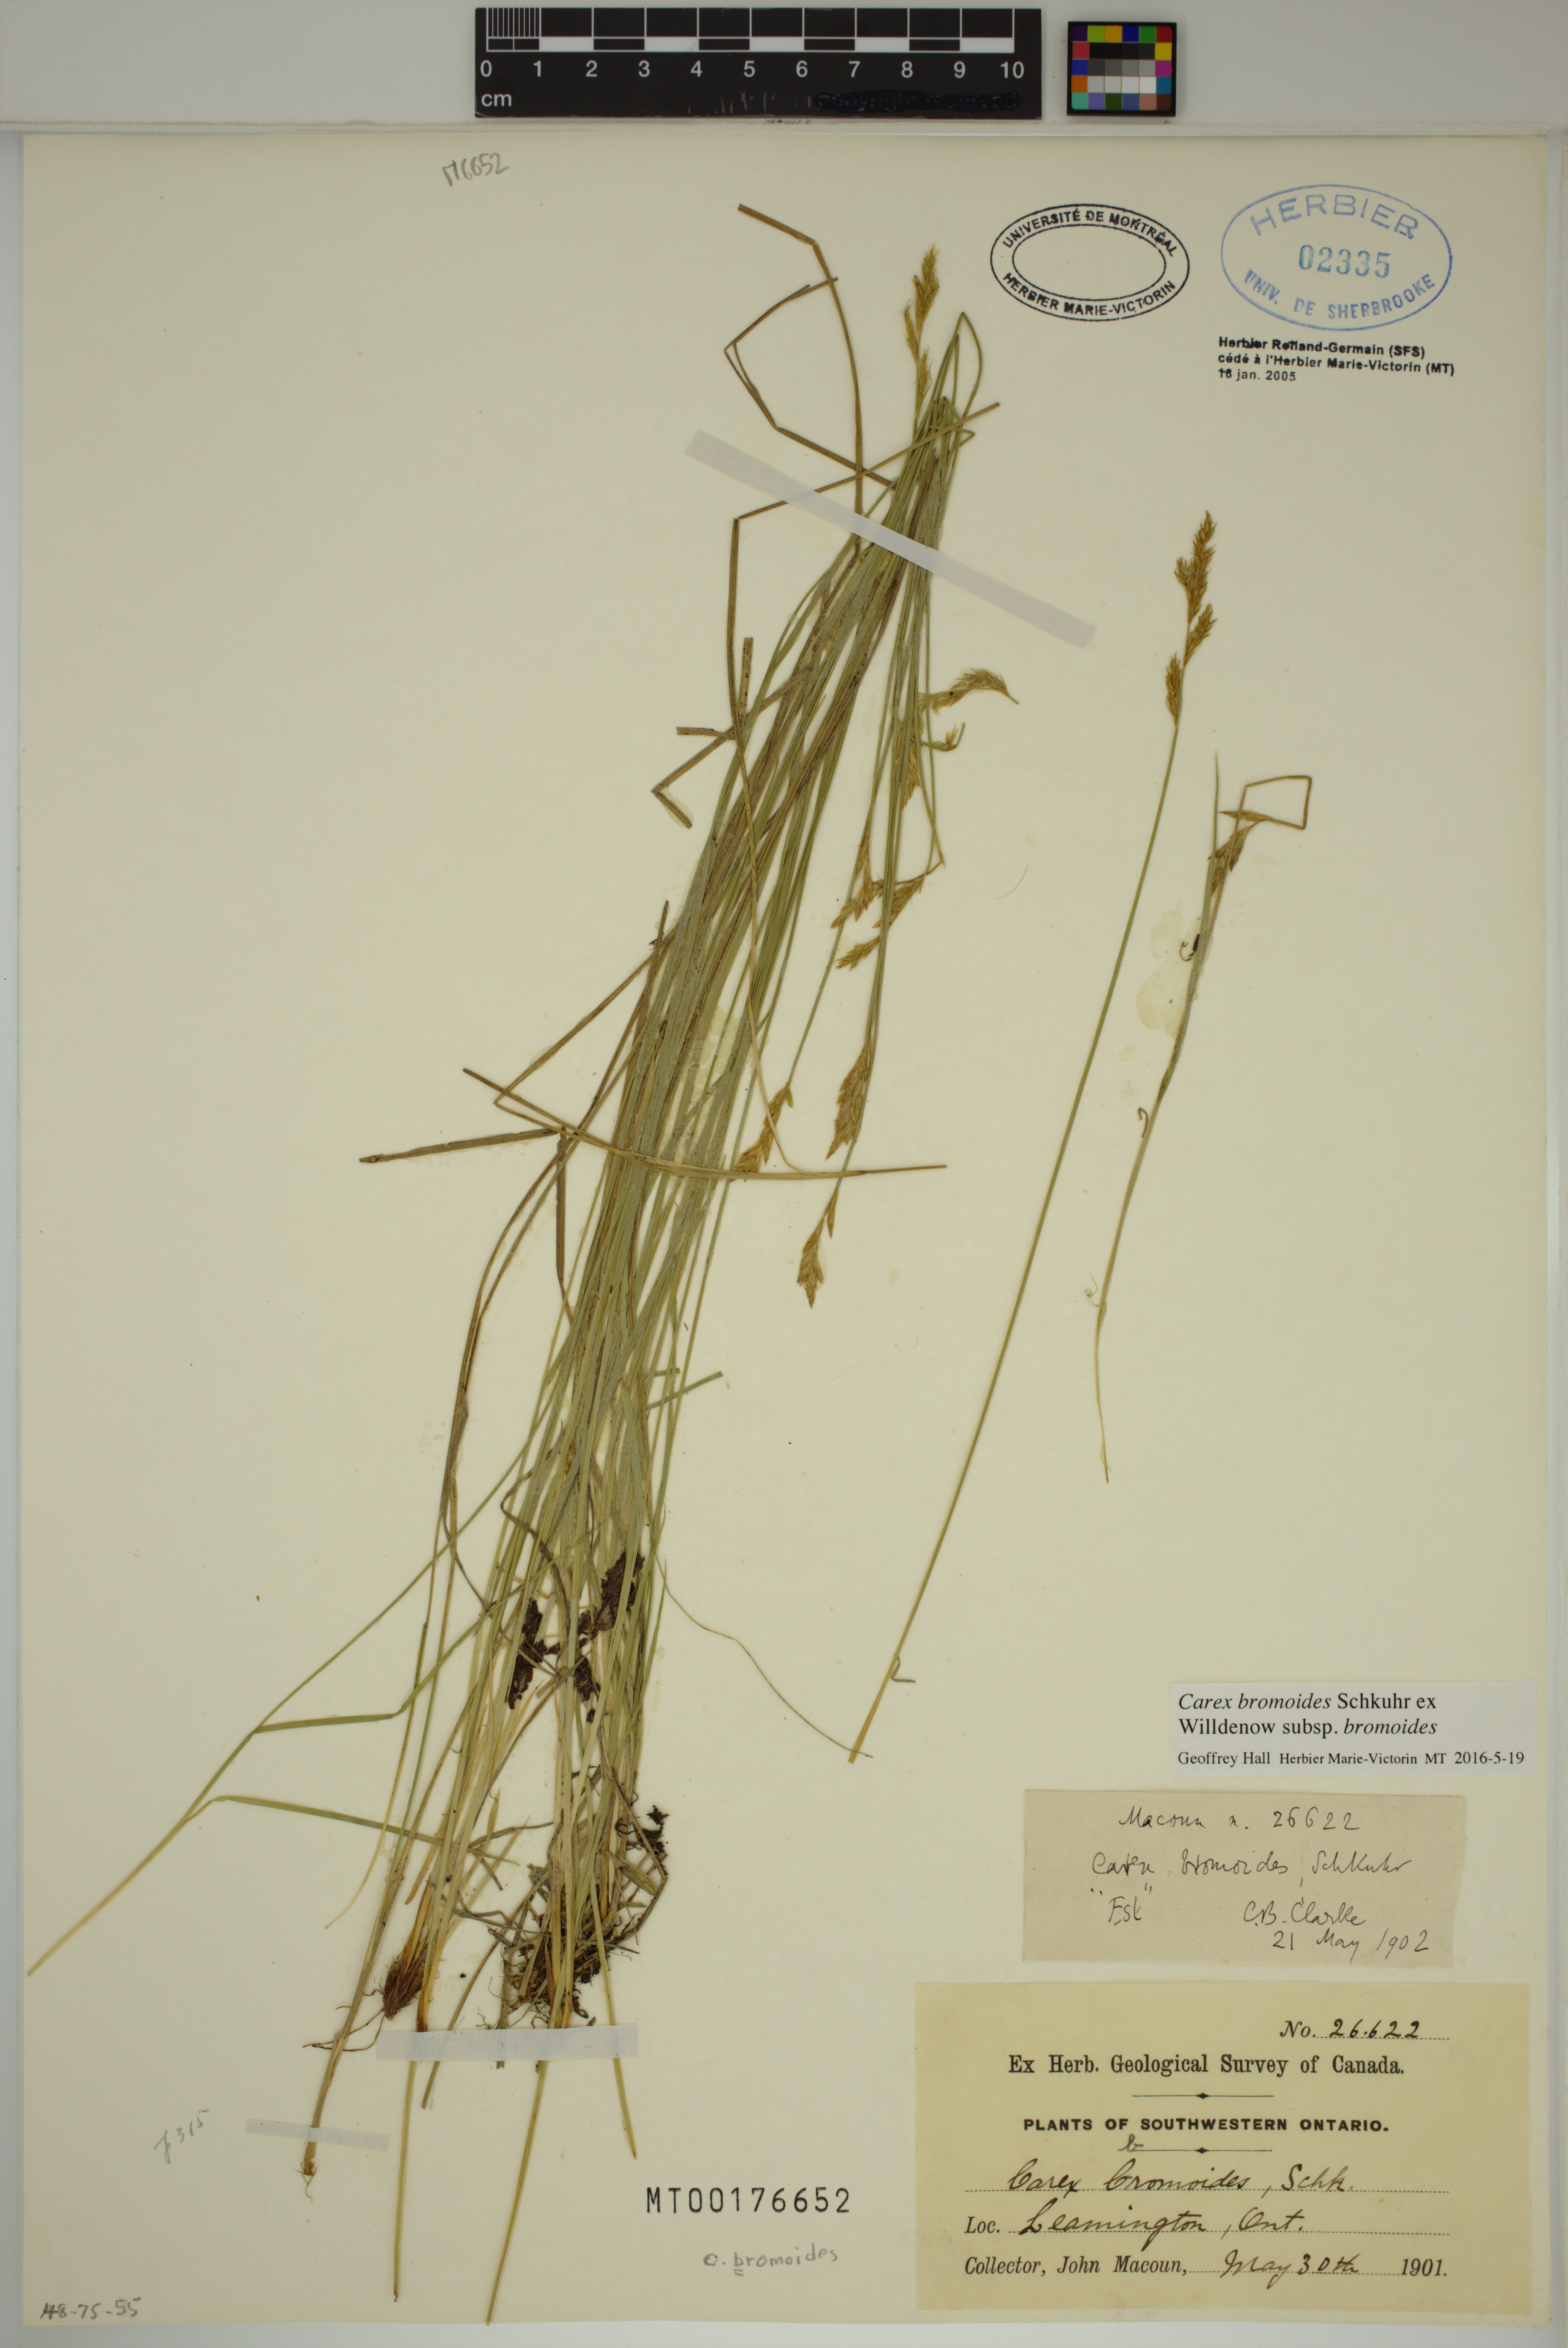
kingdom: Plantae
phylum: Tracheophyta
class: Liliopsida
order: Poales
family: Cyperaceae
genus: Carex
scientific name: Carex bromoides
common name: Brome hummock sedge
